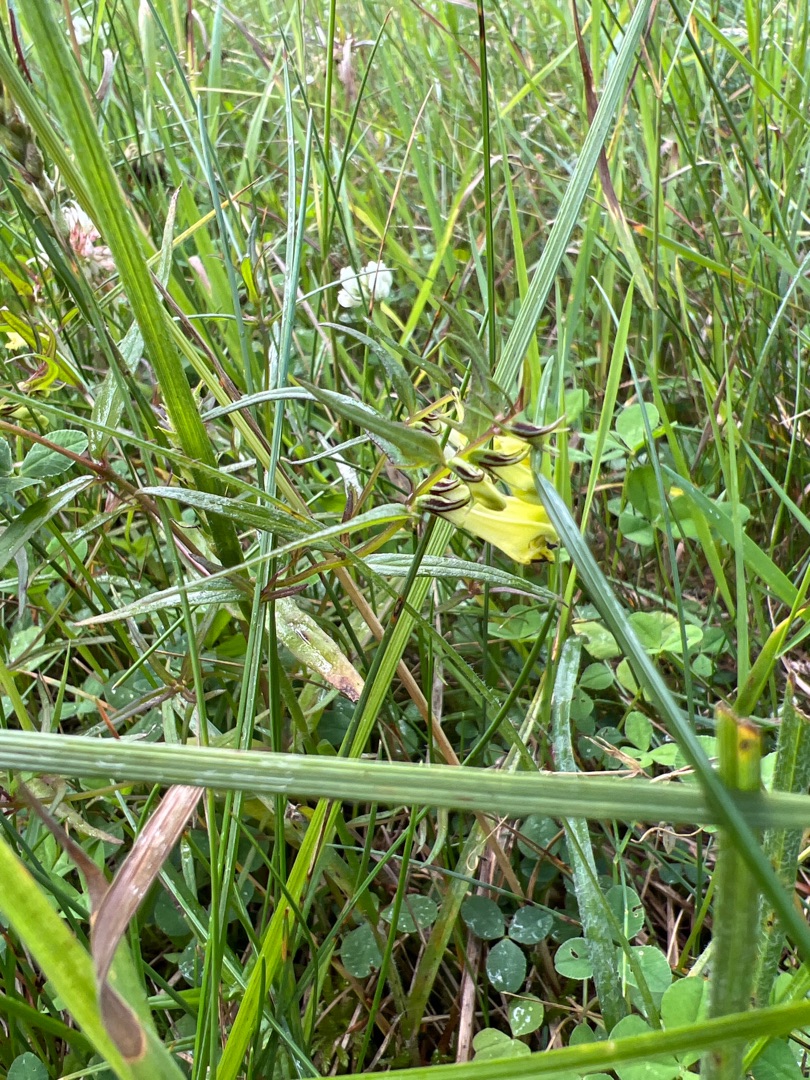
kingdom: Plantae
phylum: Tracheophyta
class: Magnoliopsida
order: Lamiales
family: Orobanchaceae
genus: Melampyrum
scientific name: Melampyrum pratense
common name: Almindelig kohvede
